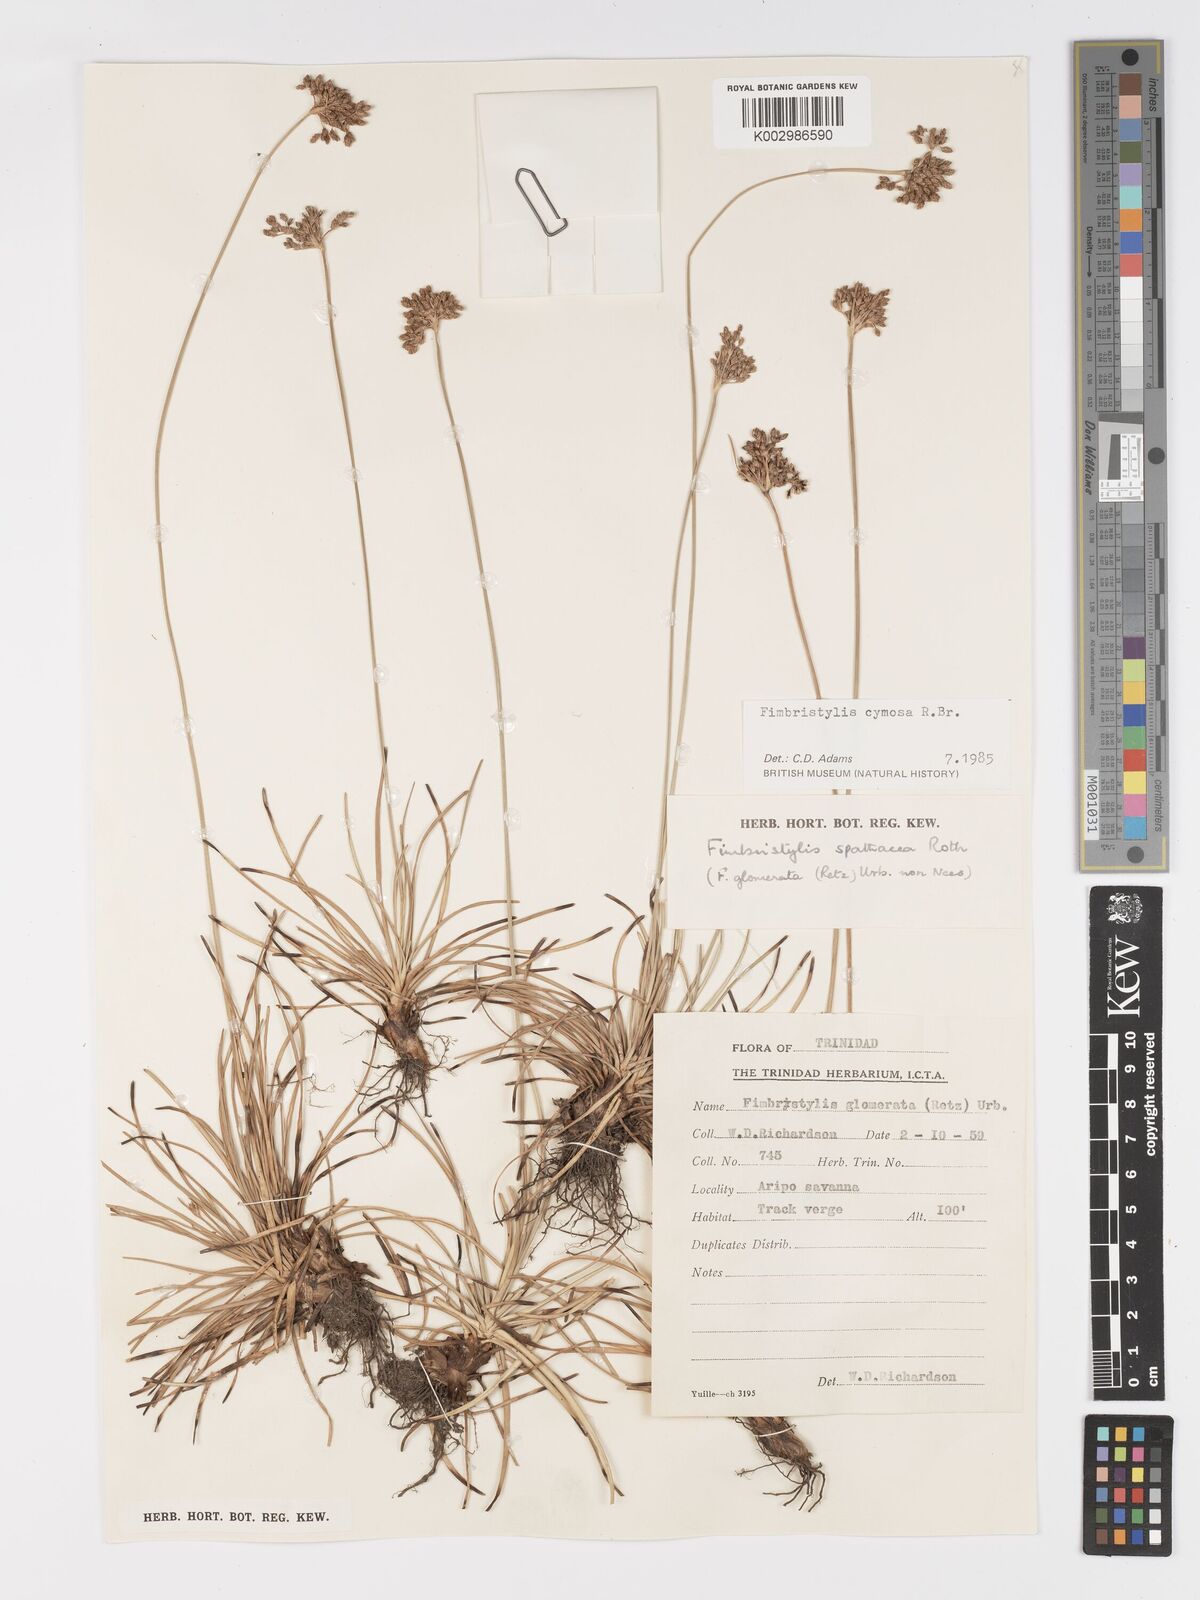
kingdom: Plantae
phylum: Tracheophyta
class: Liliopsida
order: Poales
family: Cyperaceae
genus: Fimbristylis
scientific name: Fimbristylis cymosa
